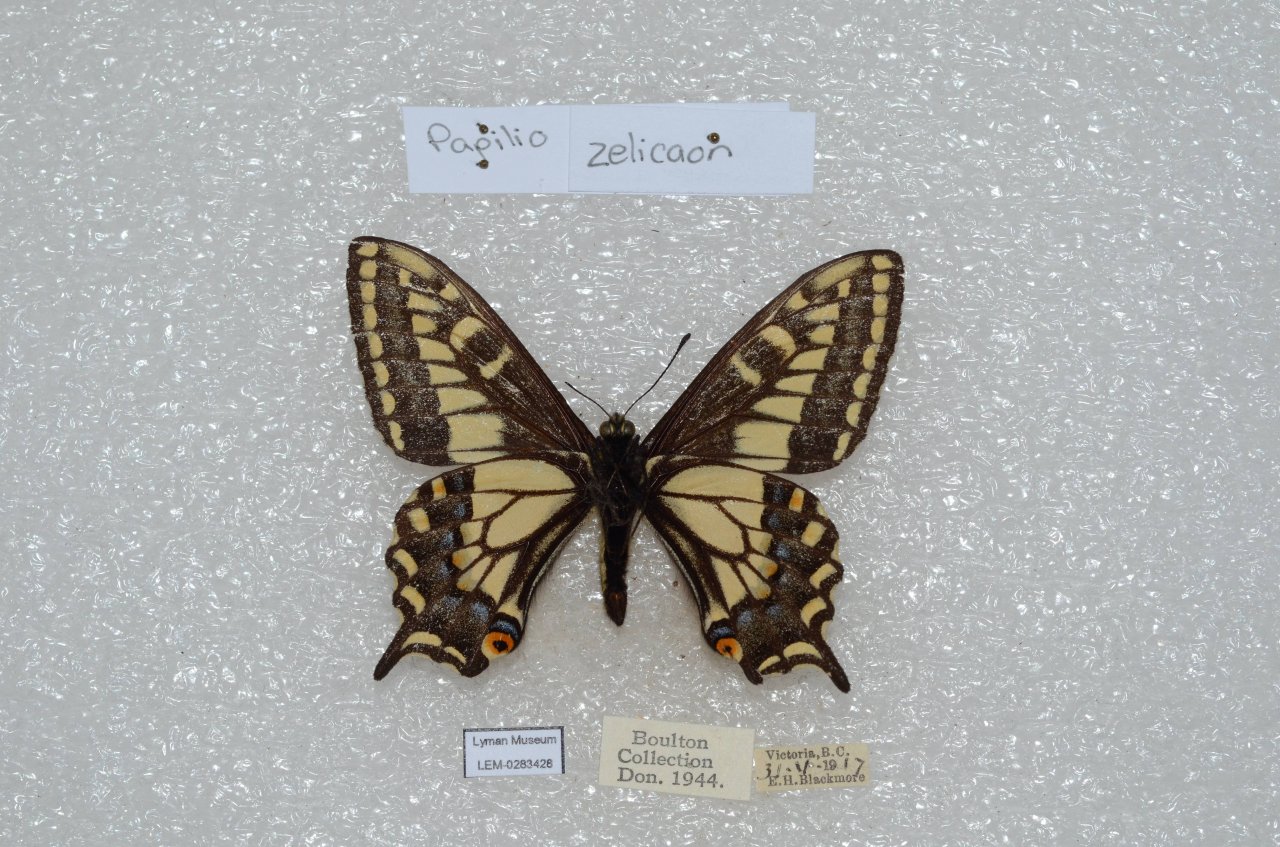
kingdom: Animalia
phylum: Arthropoda
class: Insecta
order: Lepidoptera
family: Papilionidae
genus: Papilio
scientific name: Papilio zelicaon
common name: Anise Swallowtail
